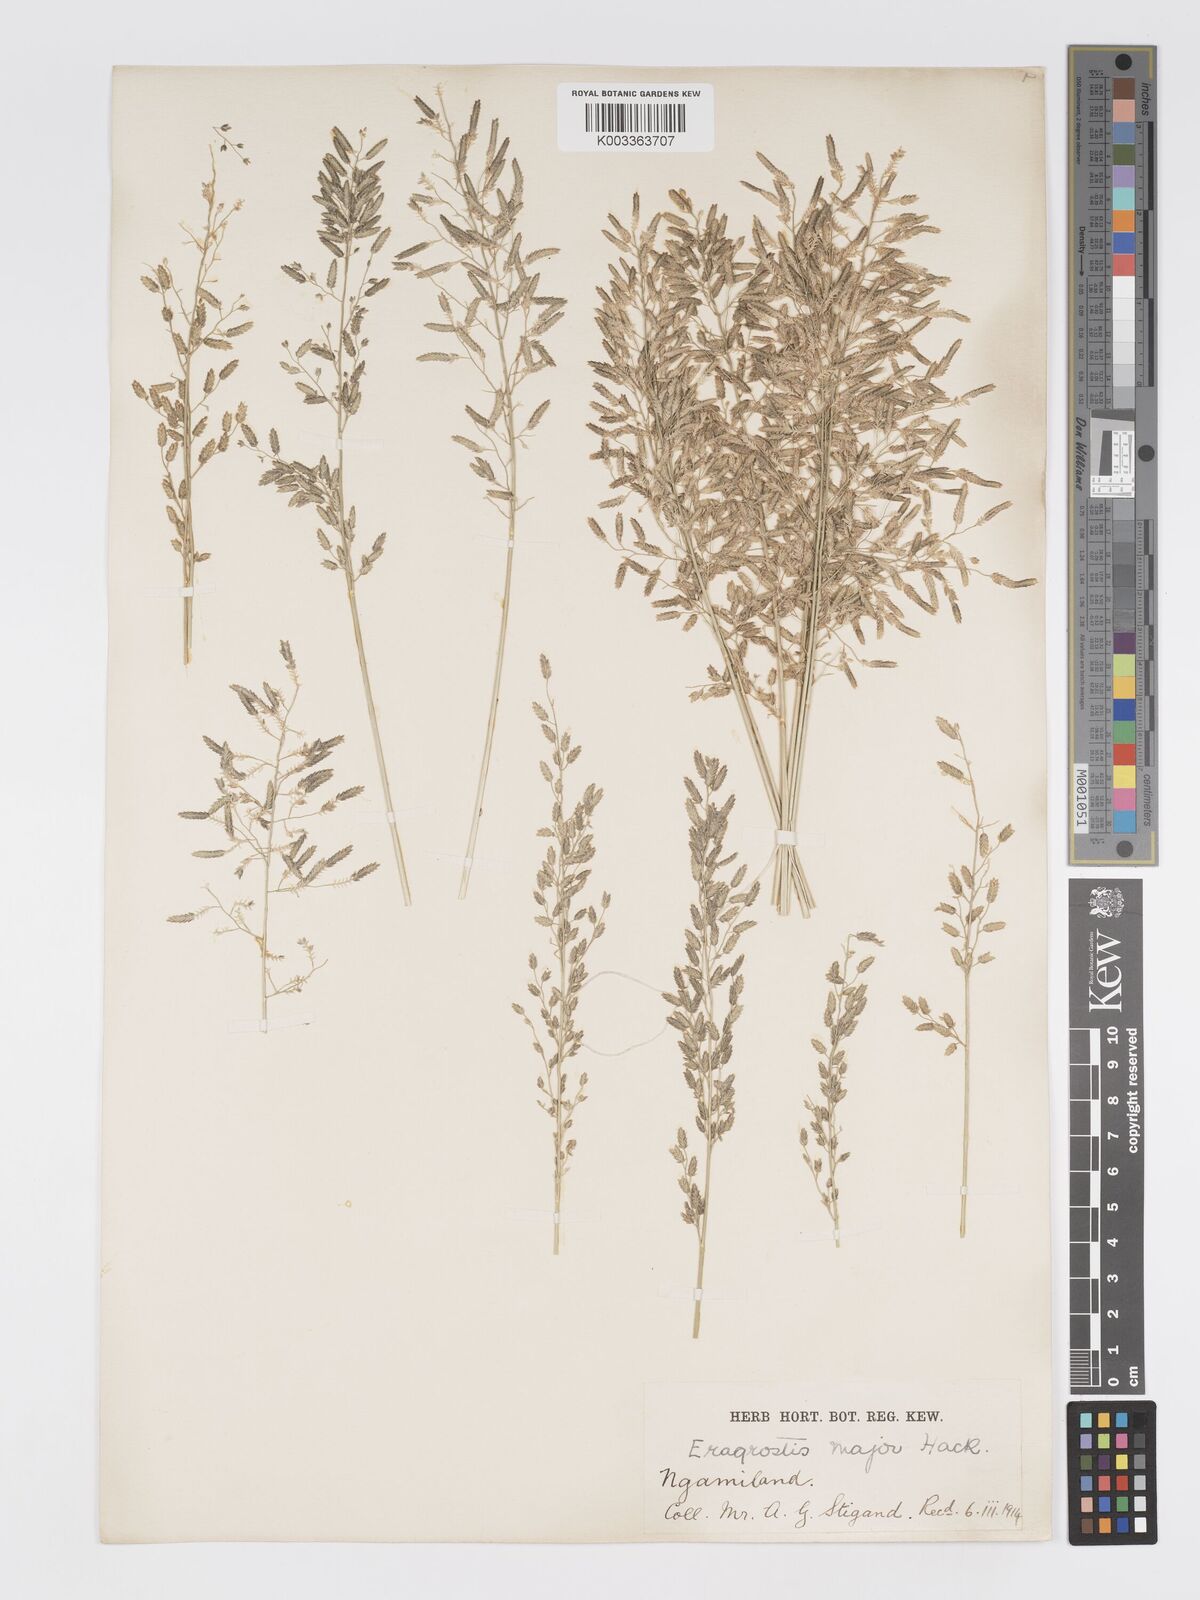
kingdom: Plantae
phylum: Tracheophyta
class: Liliopsida
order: Poales
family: Poaceae
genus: Eragrostis
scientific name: Eragrostis cilianensis
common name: Stinkgrass
